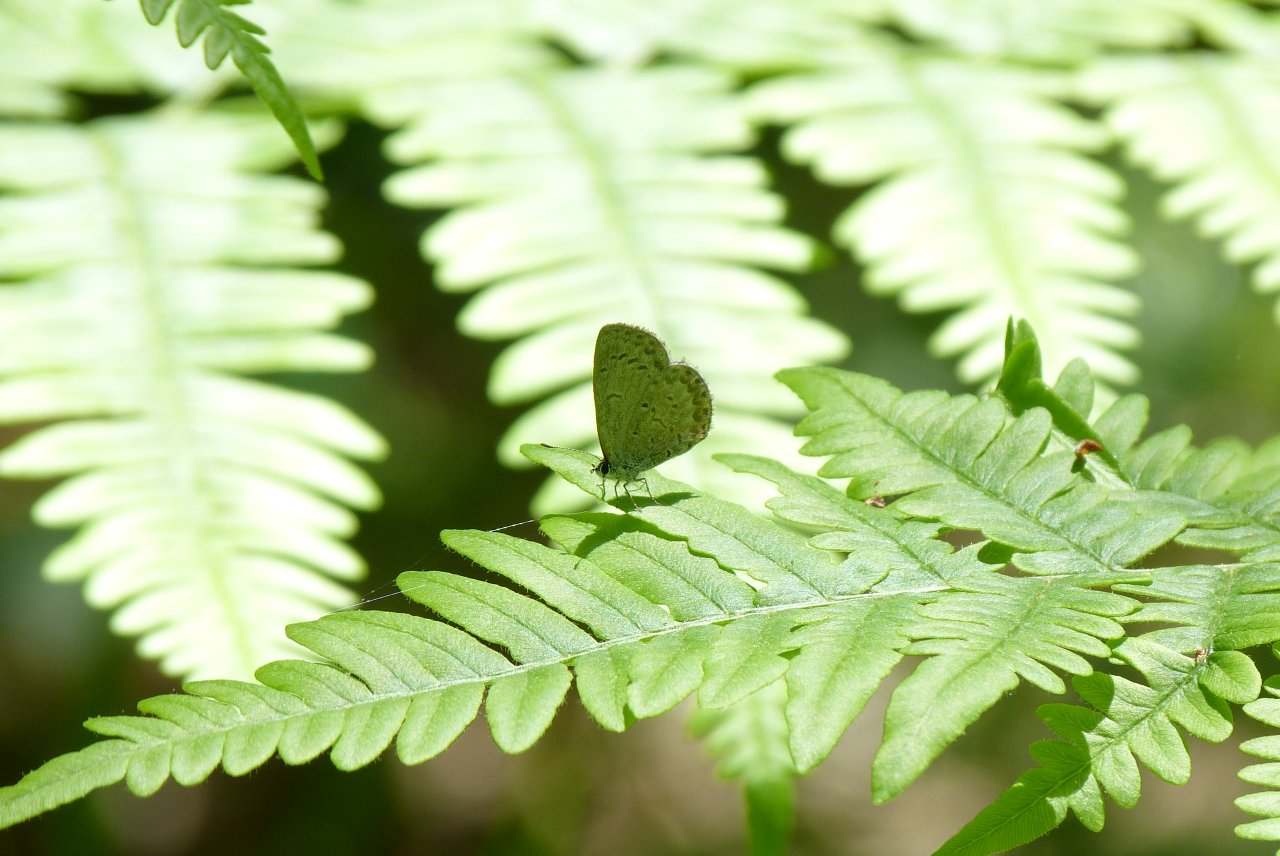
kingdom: Animalia
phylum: Arthropoda
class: Insecta
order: Lepidoptera
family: Lycaenidae
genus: Celastrina
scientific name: Celastrina lucia
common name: Northern Spring Azure
